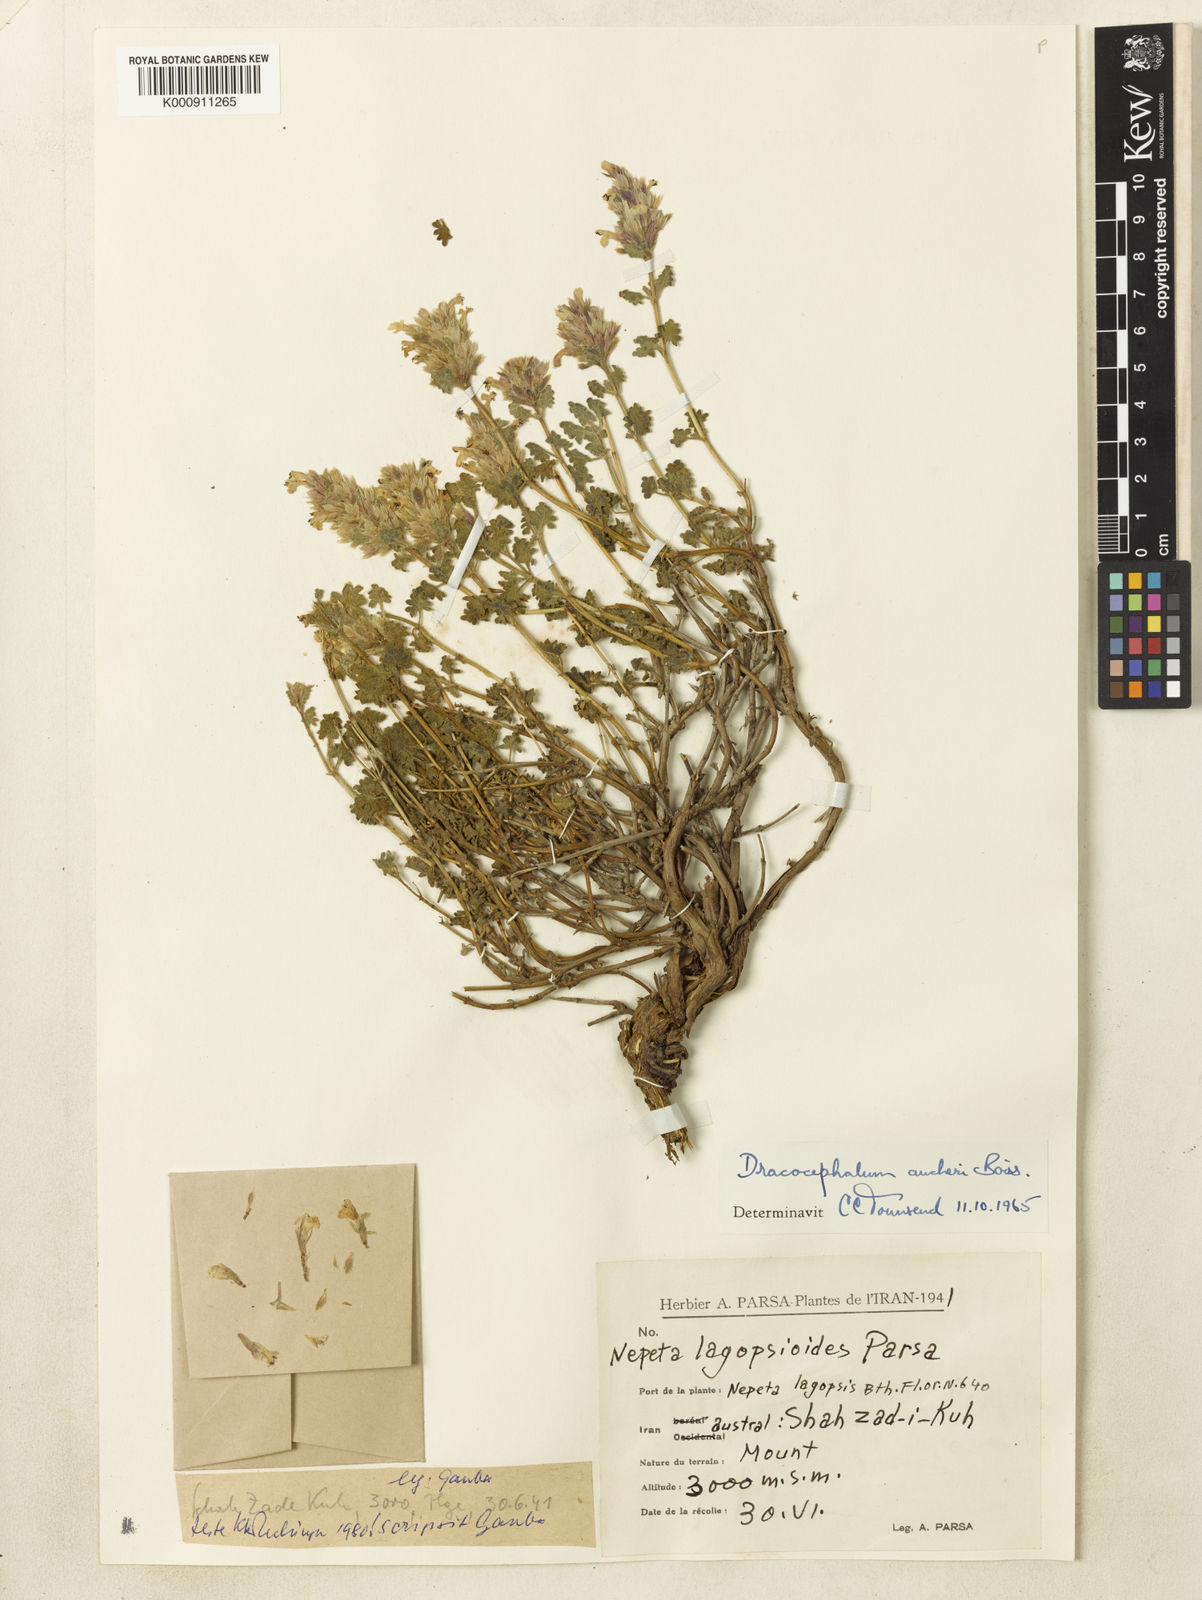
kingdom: Plantae
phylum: Tracheophyta
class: Magnoliopsida
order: Lamiales
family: Lamiaceae
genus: Dracocephalum
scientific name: Dracocephalum aucheri
